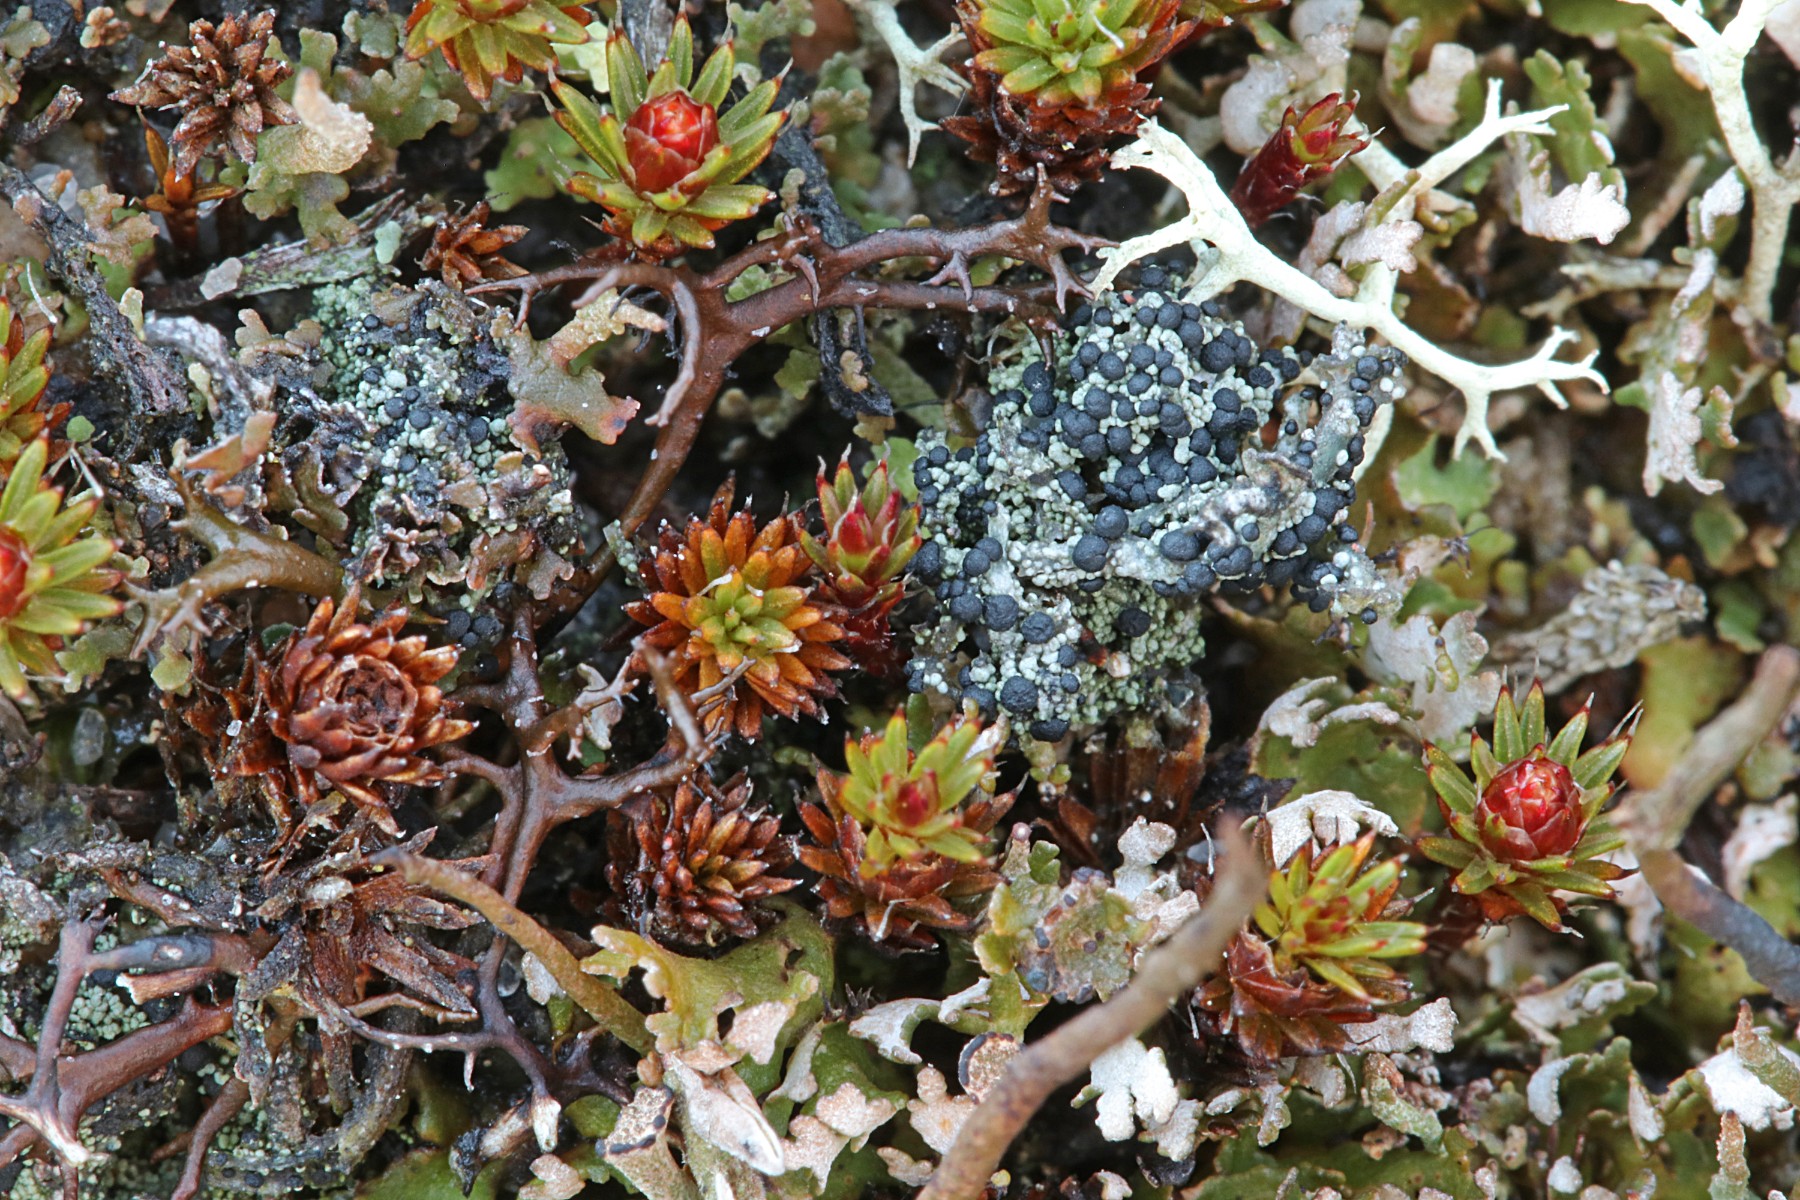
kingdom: Fungi
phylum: Ascomycota
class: Lecanoromycetes
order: Lecanorales
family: Byssolomataceae
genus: Micarea
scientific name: Micarea lignaria
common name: tørve-knaplav
